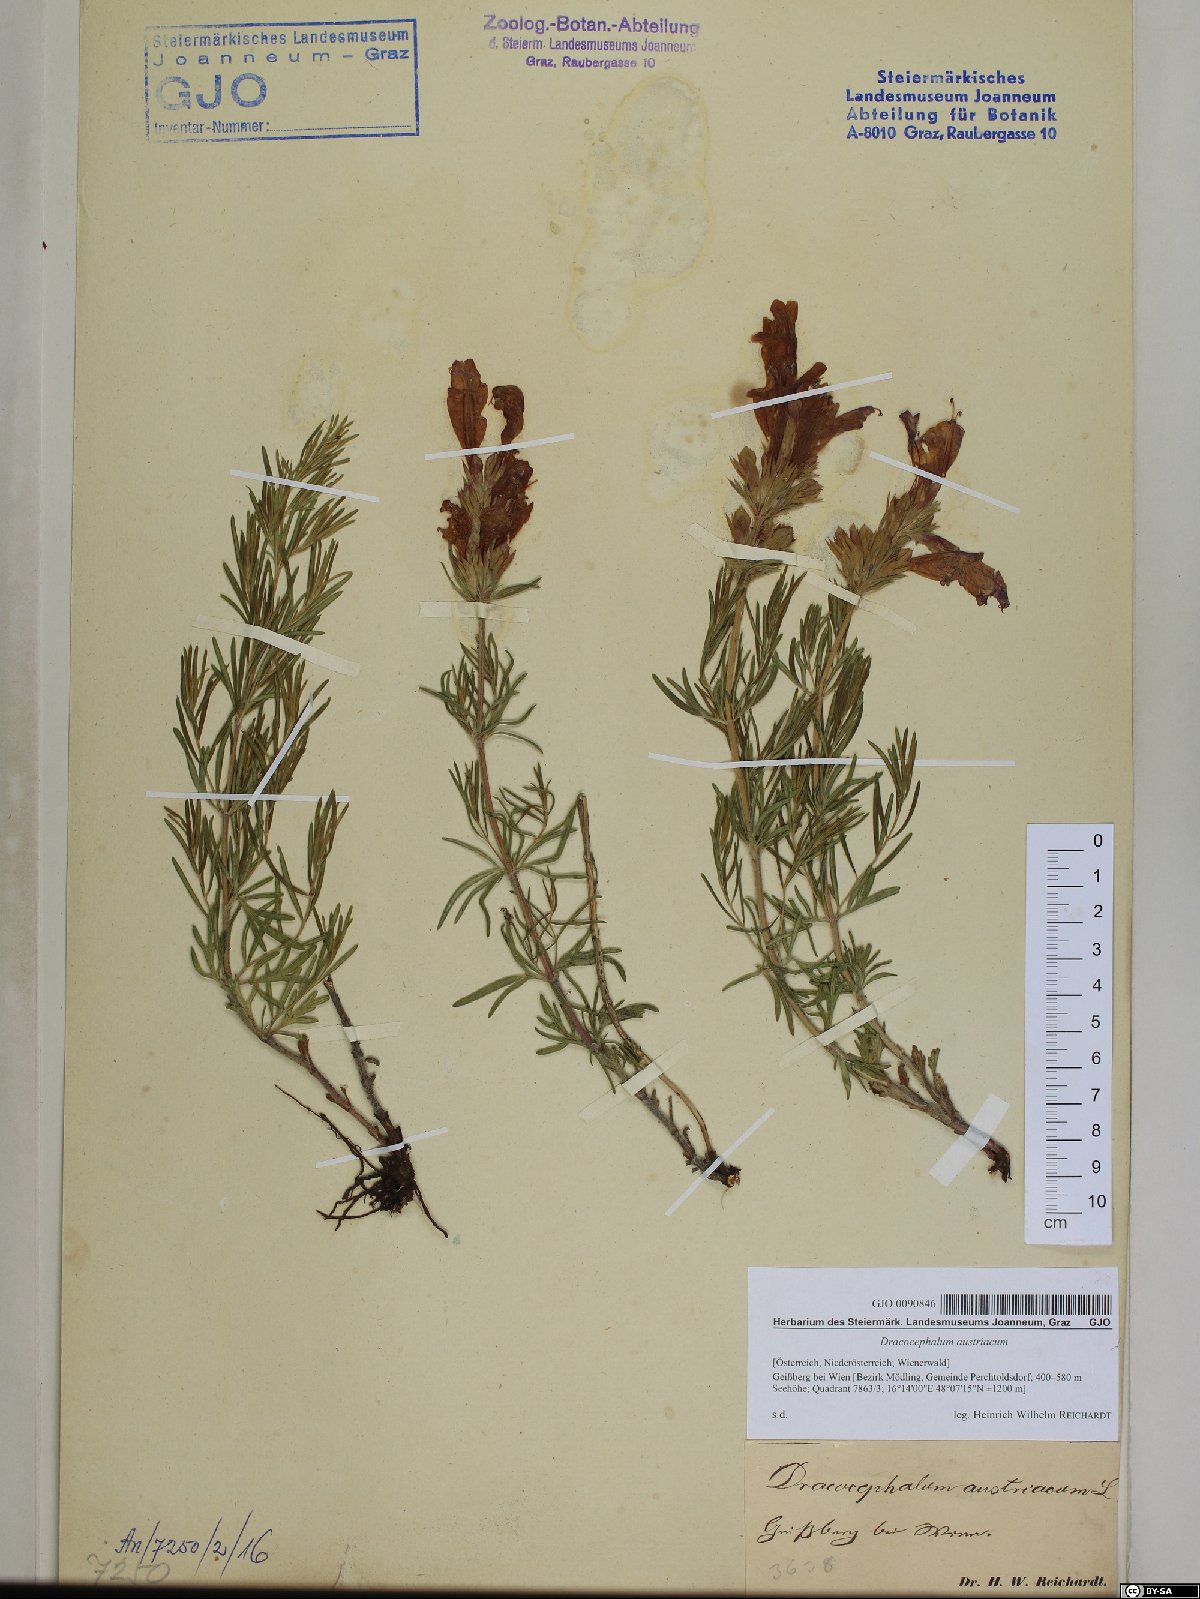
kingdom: Plantae
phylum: Tracheophyta
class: Magnoliopsida
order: Lamiales
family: Lamiaceae
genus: Dracocephalum
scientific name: Dracocephalum austriacum
